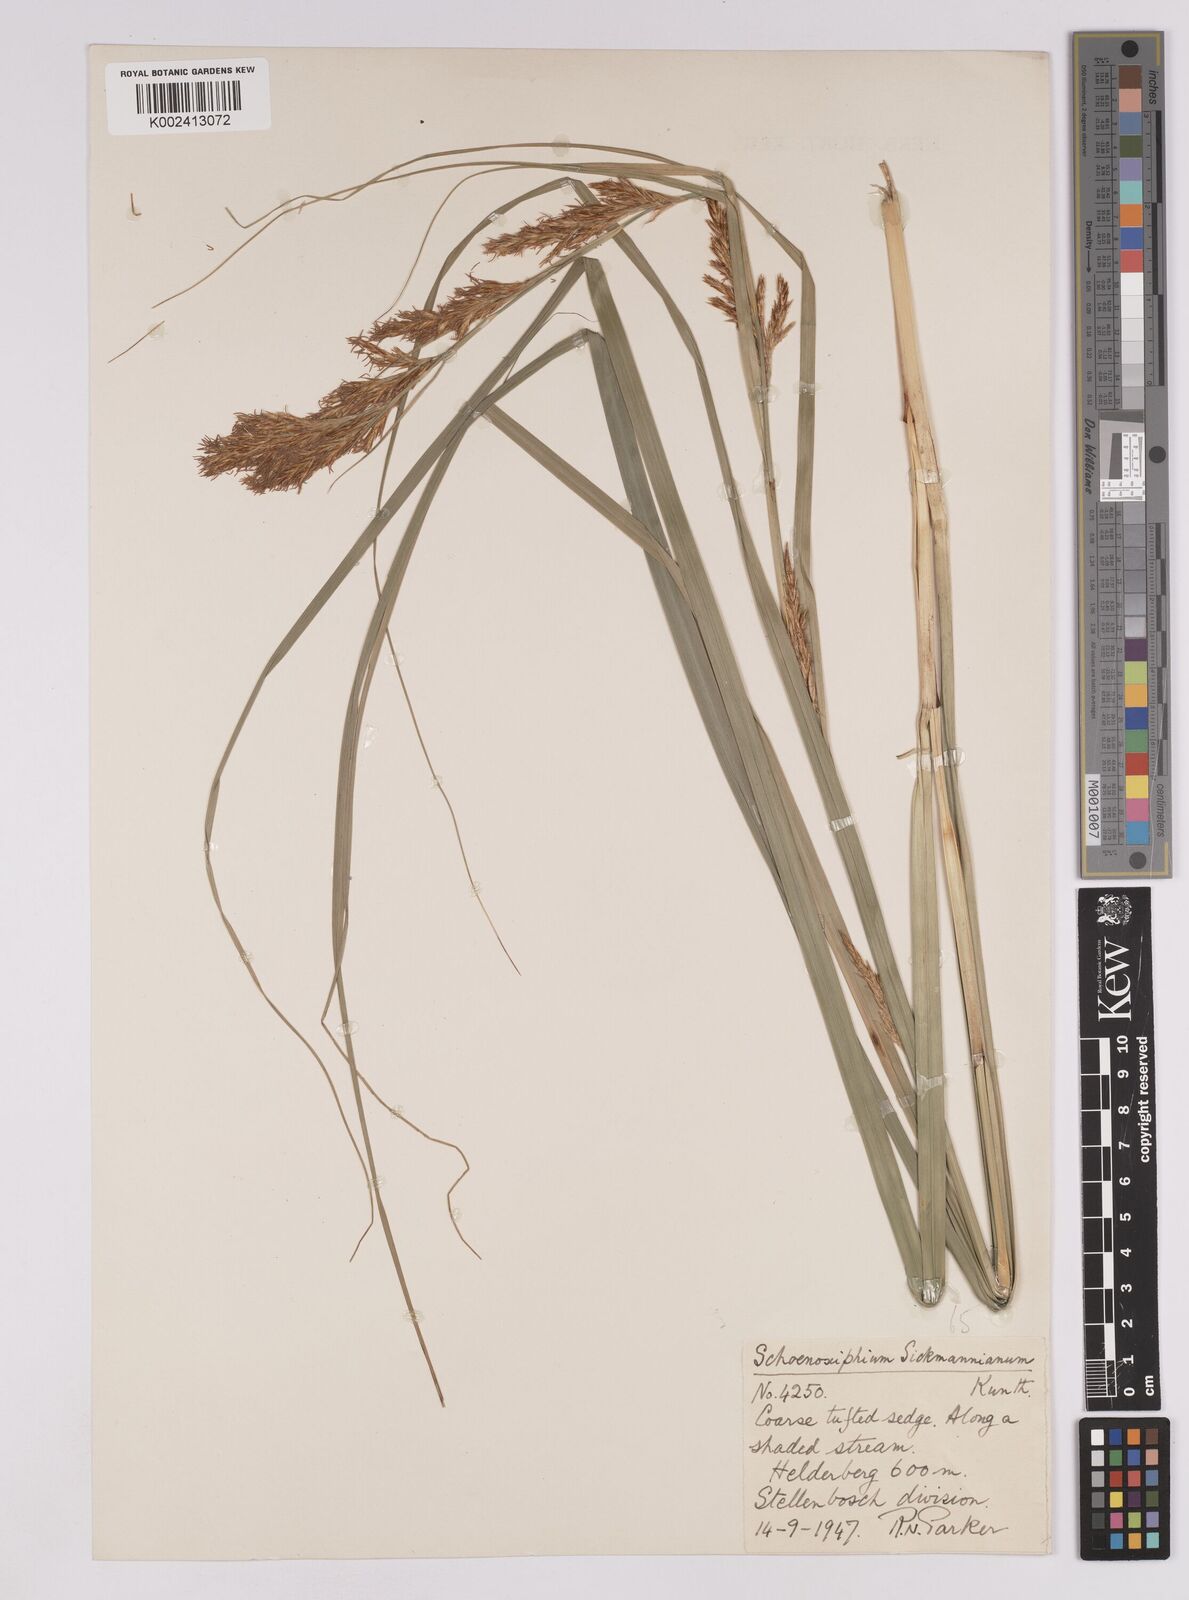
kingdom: Plantae
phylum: Tracheophyta
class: Liliopsida
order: Poales
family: Cyperaceae
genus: Carex
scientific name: Carex lancea
